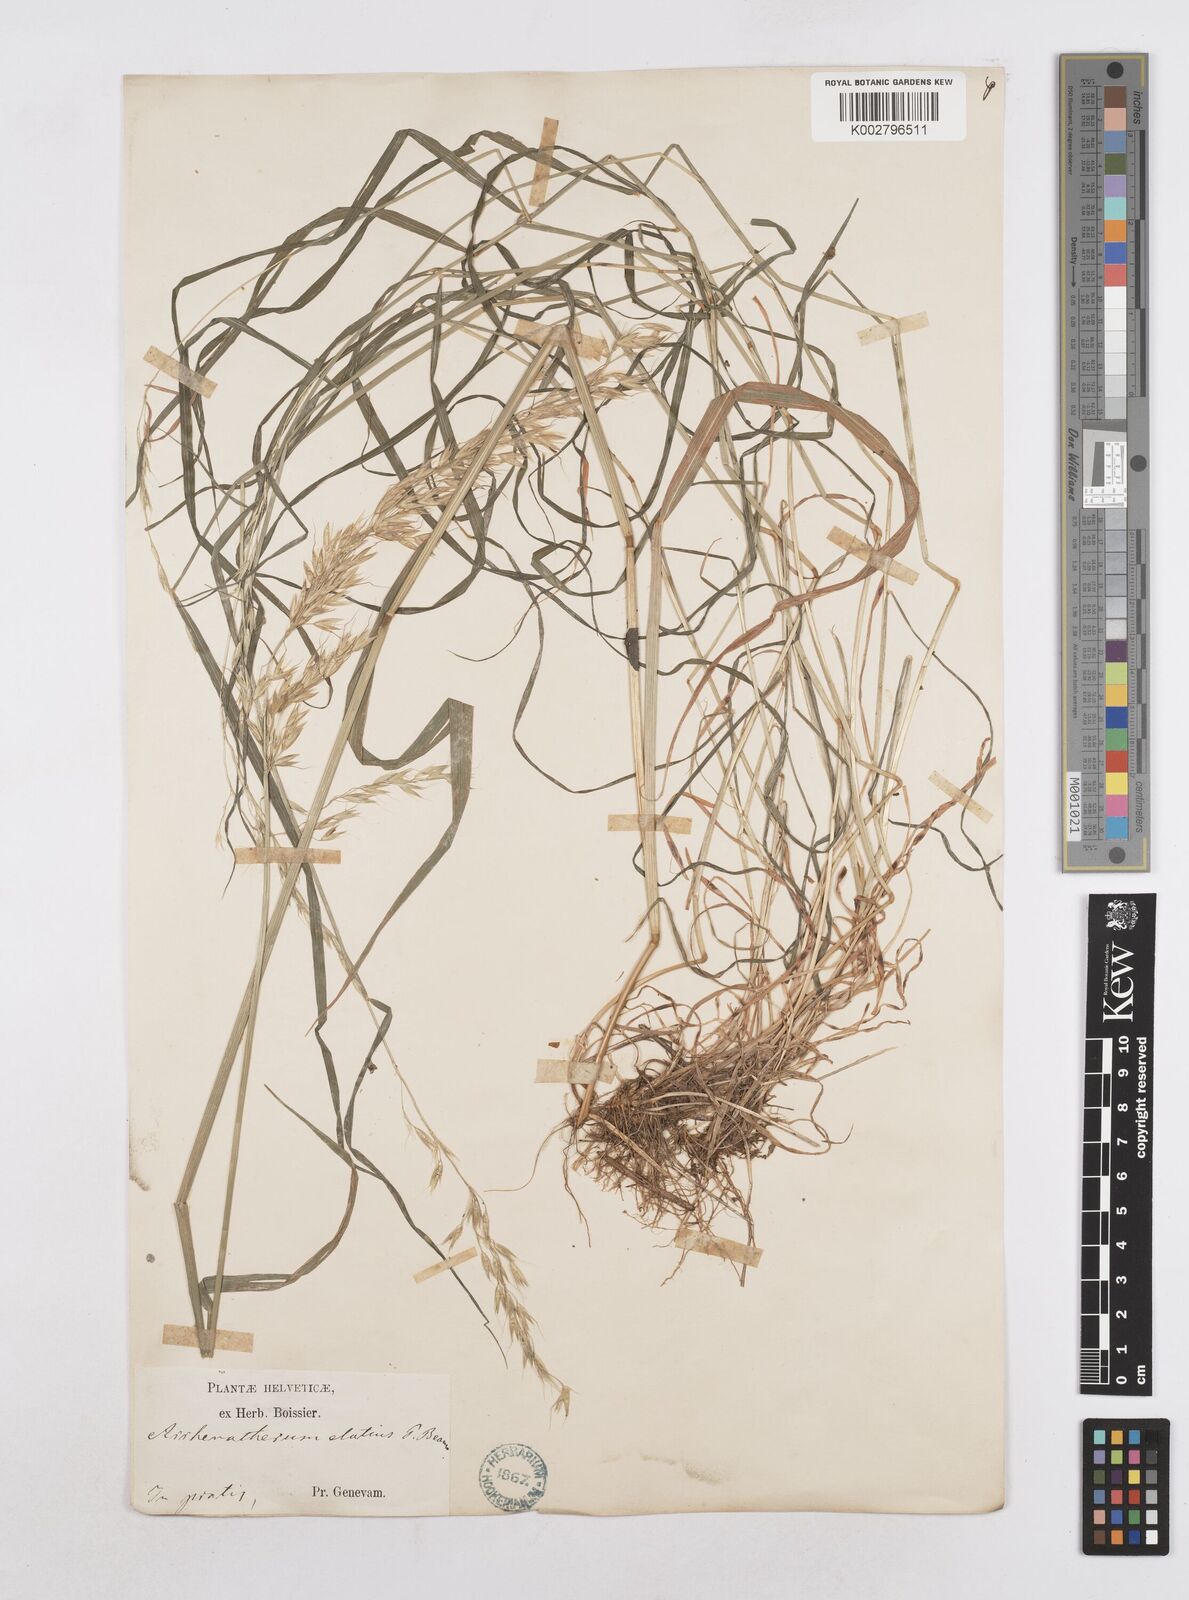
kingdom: Plantae
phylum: Tracheophyta
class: Liliopsida
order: Poales
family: Poaceae
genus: Arrhenatherum
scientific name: Arrhenatherum elatius
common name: Tall oatgrass
